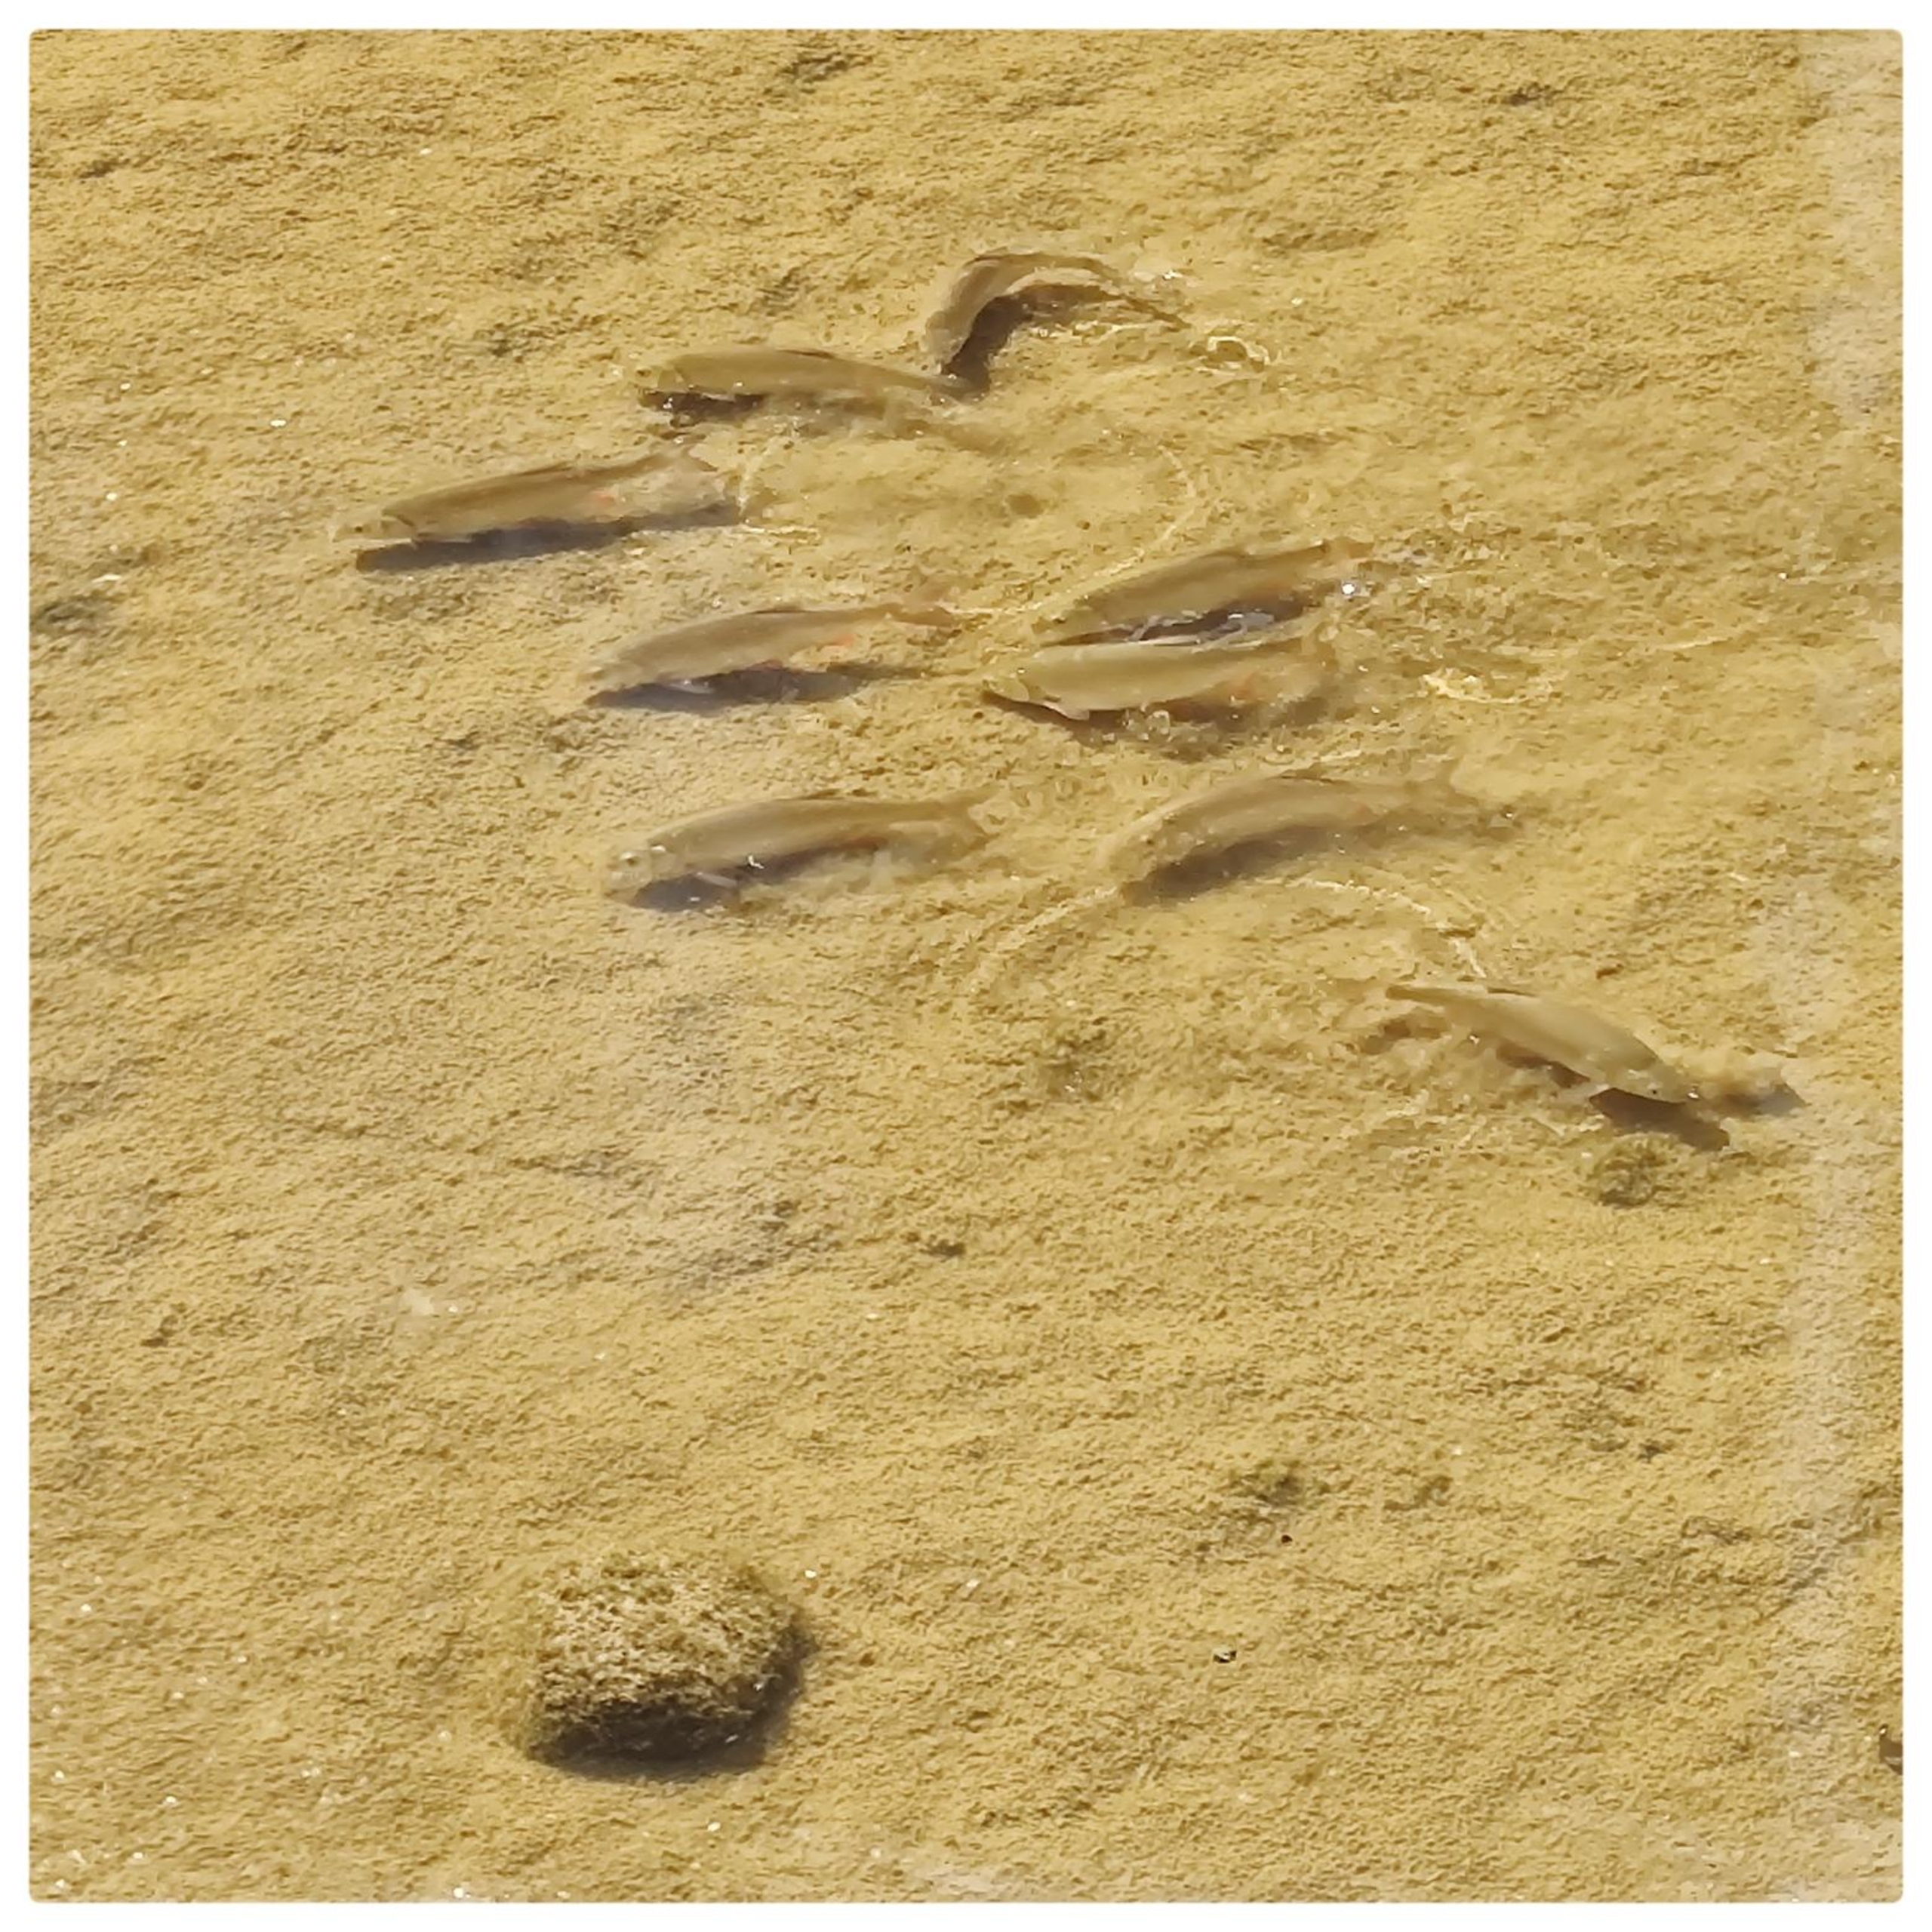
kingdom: Animalia
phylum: Chordata
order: Cypriniformes
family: Cyprinidae
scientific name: Cyprinidae
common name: Karpefamilien
